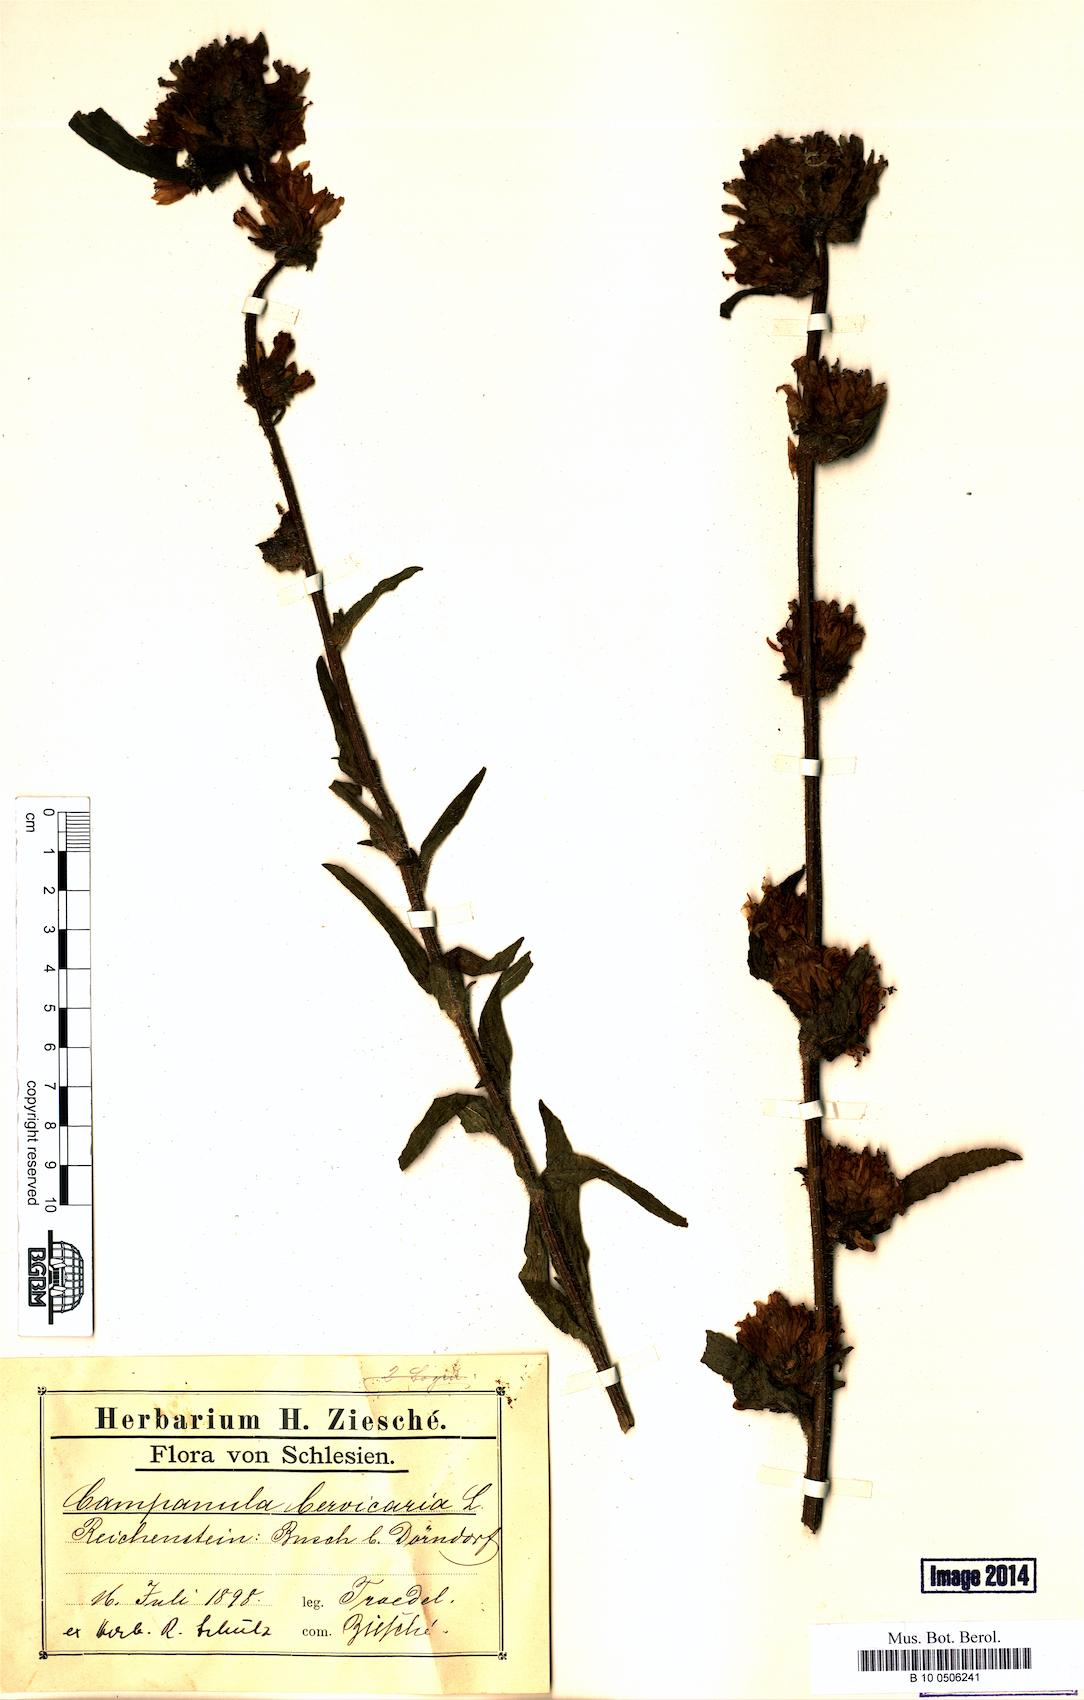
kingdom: Plantae
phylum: Tracheophyta
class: Magnoliopsida
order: Asterales
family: Campanulaceae
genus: Campanula
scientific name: Campanula cervicaria
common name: Bristly bellflower
